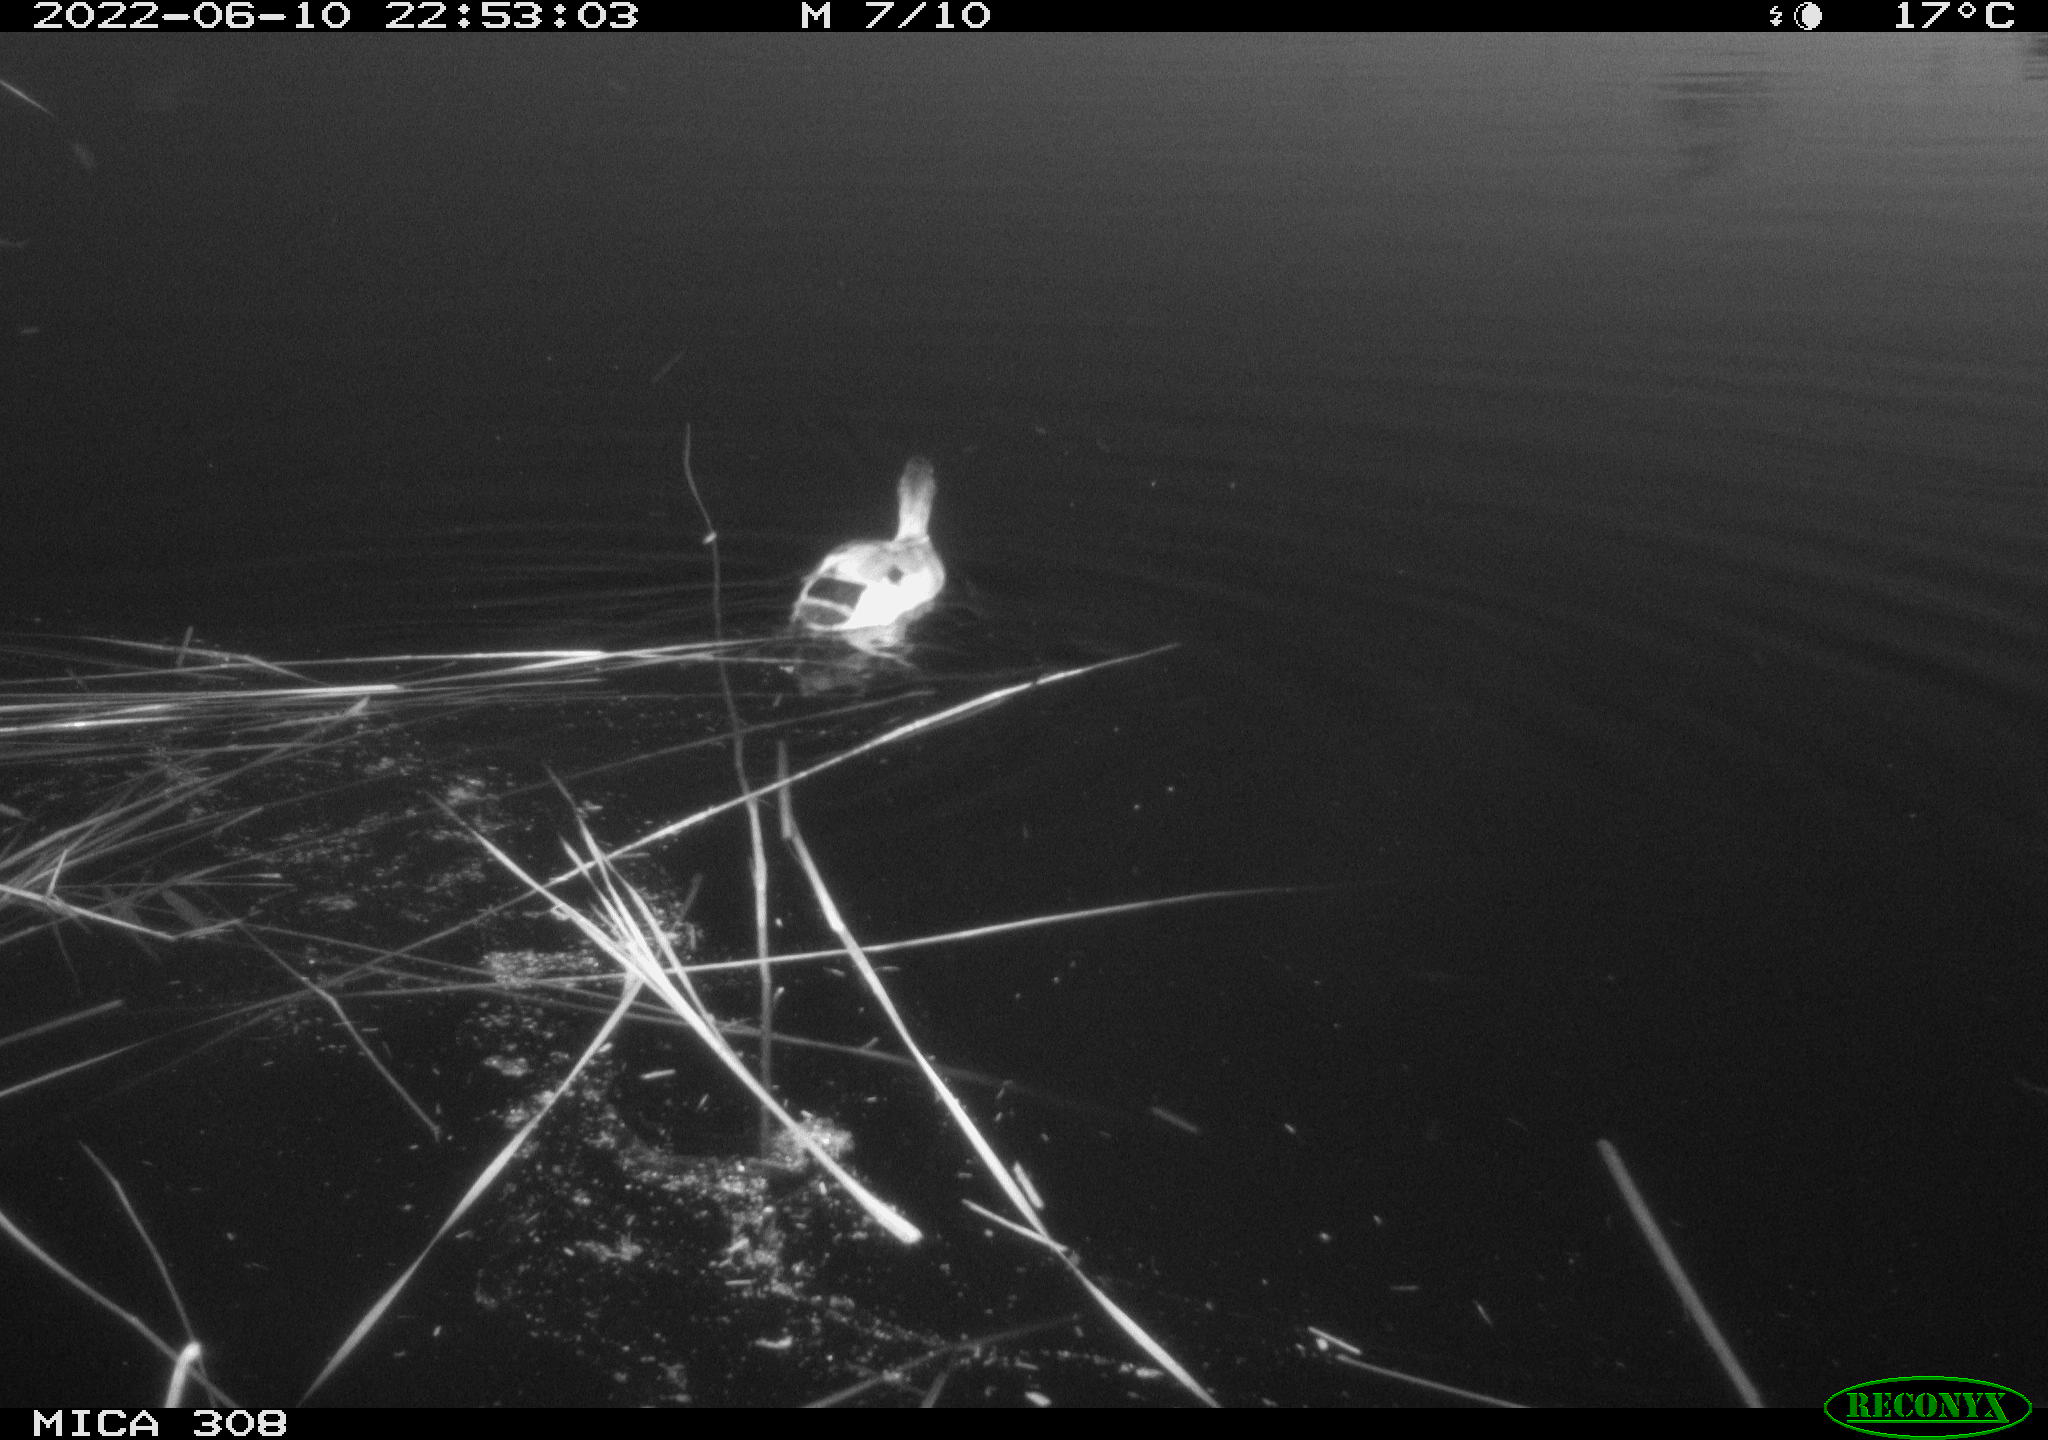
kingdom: Animalia
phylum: Chordata
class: Aves
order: Anseriformes
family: Anatidae
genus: Anas
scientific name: Anas platyrhynchos
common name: Mallard
